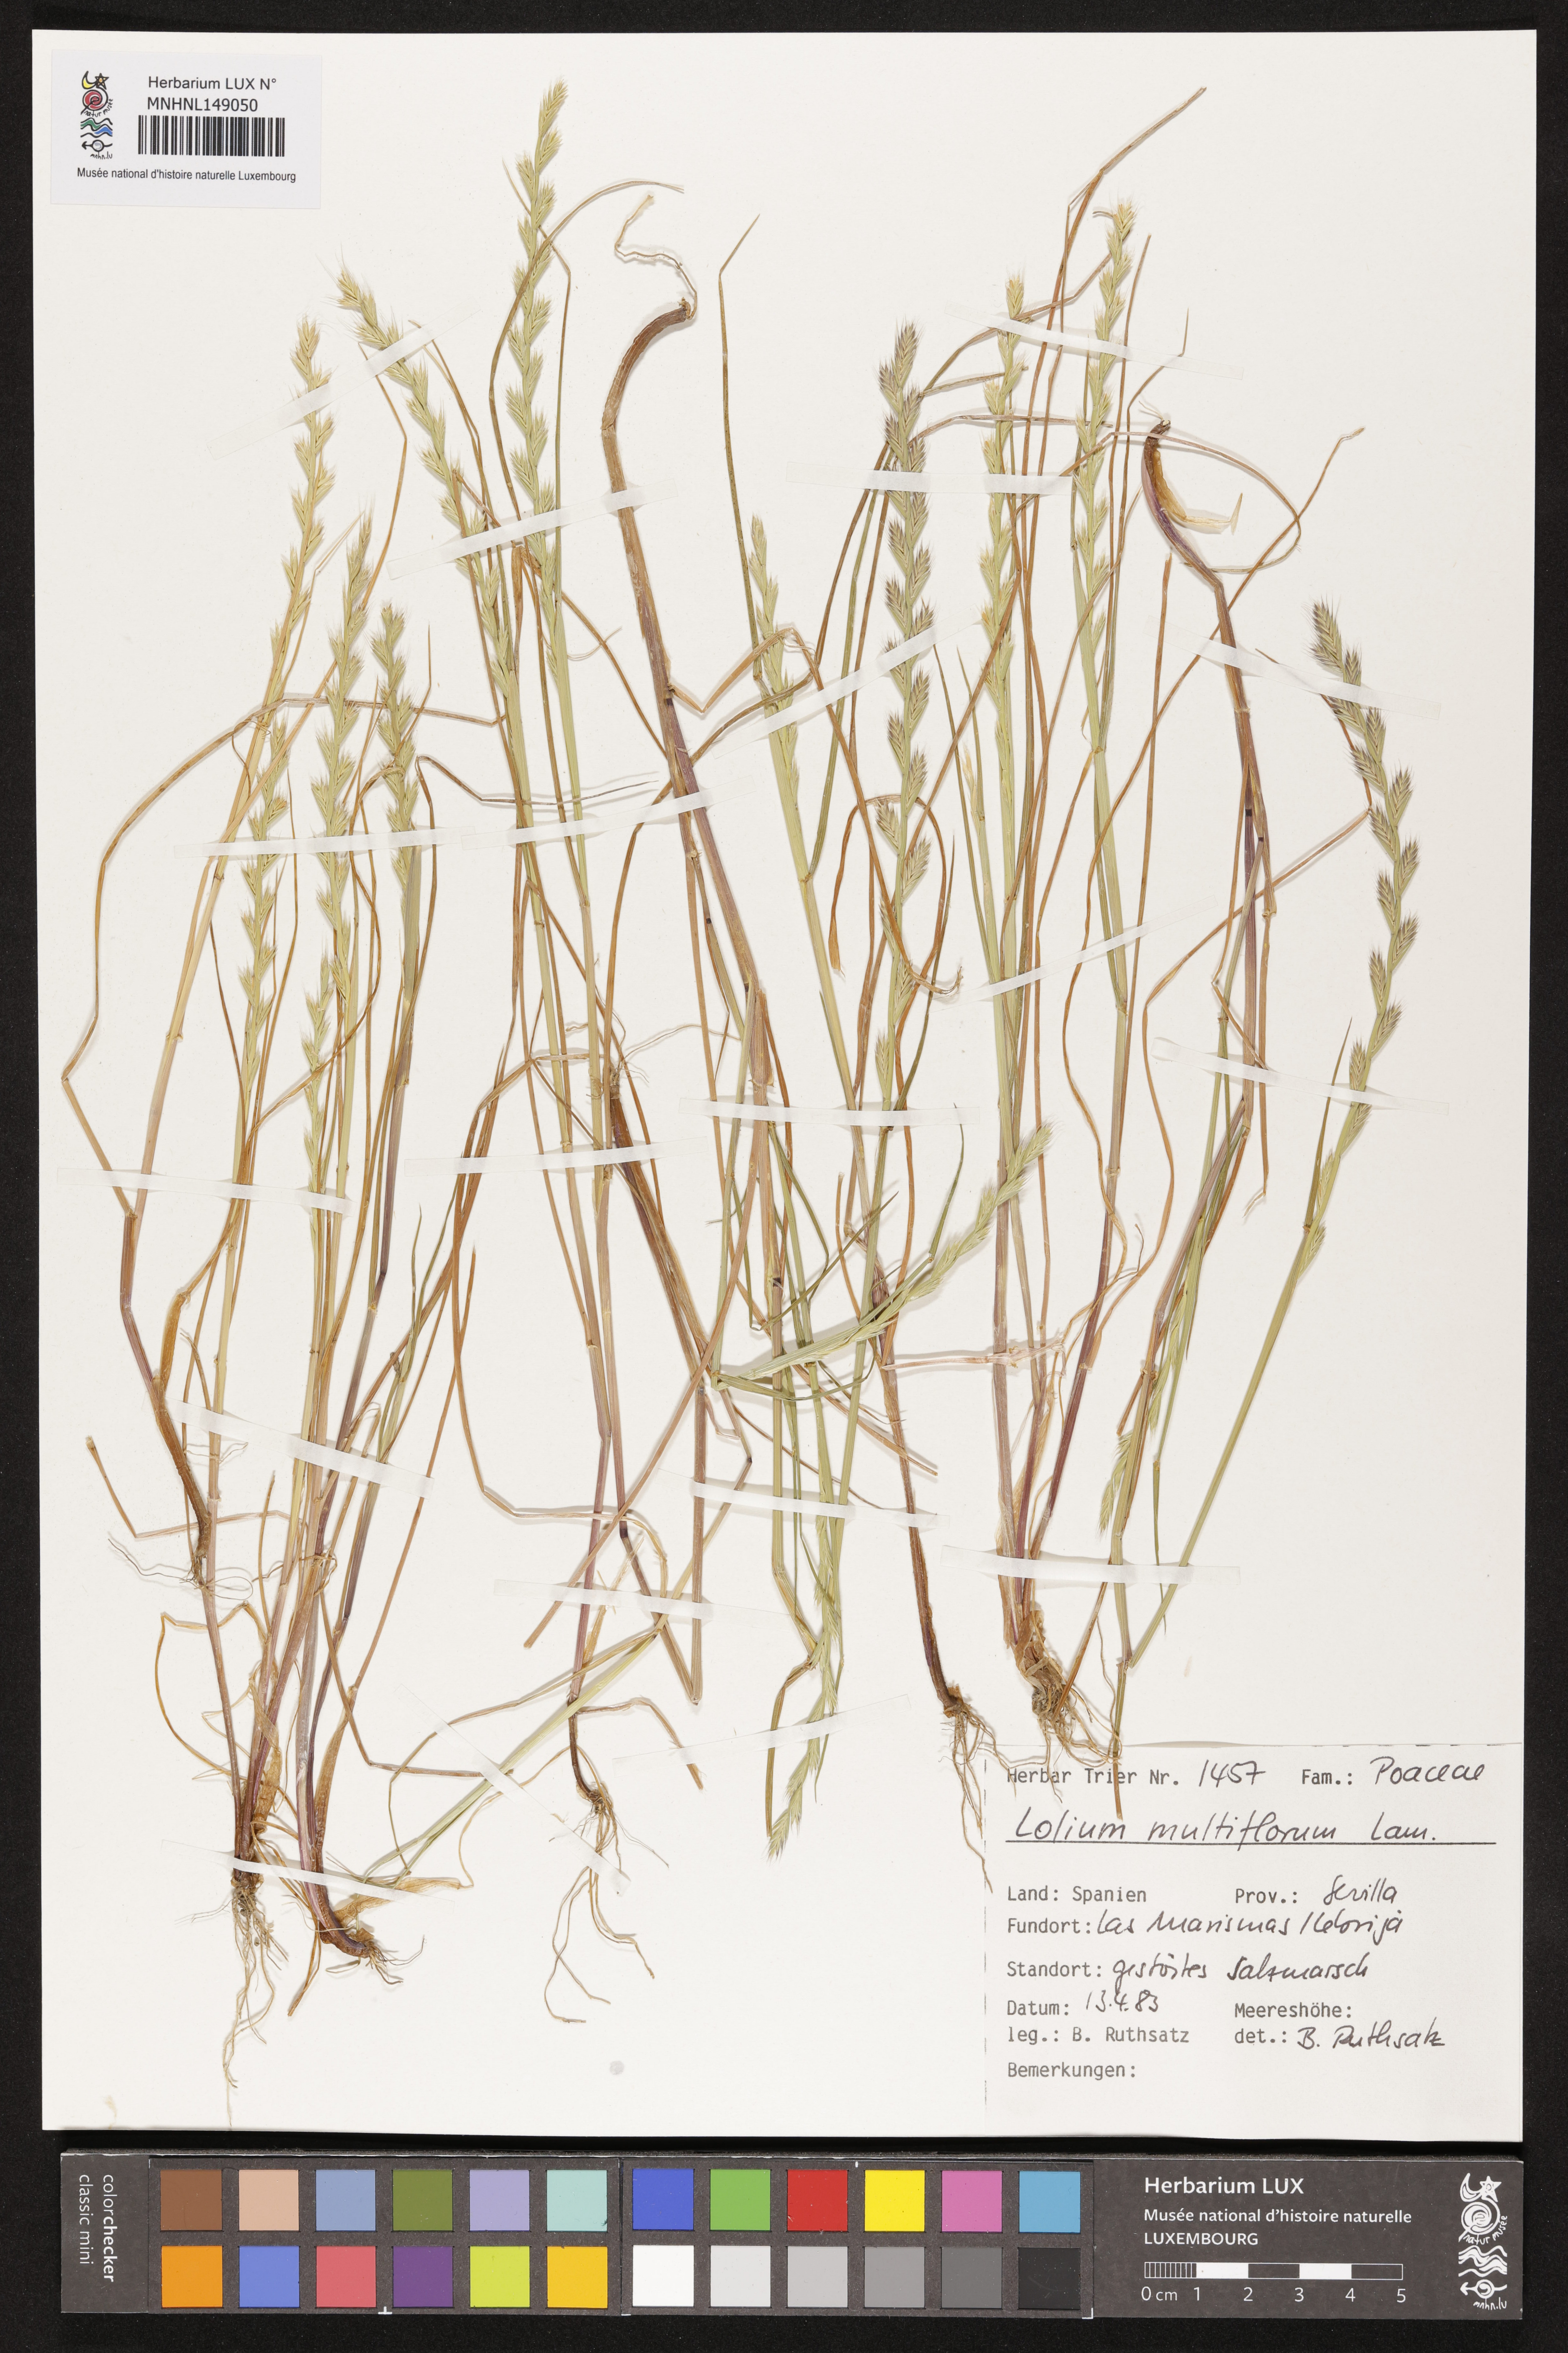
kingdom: Plantae
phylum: Tracheophyta
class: Liliopsida
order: Poales
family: Poaceae
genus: Lolium
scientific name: Lolium multiflorum
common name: Annual ryegrass
